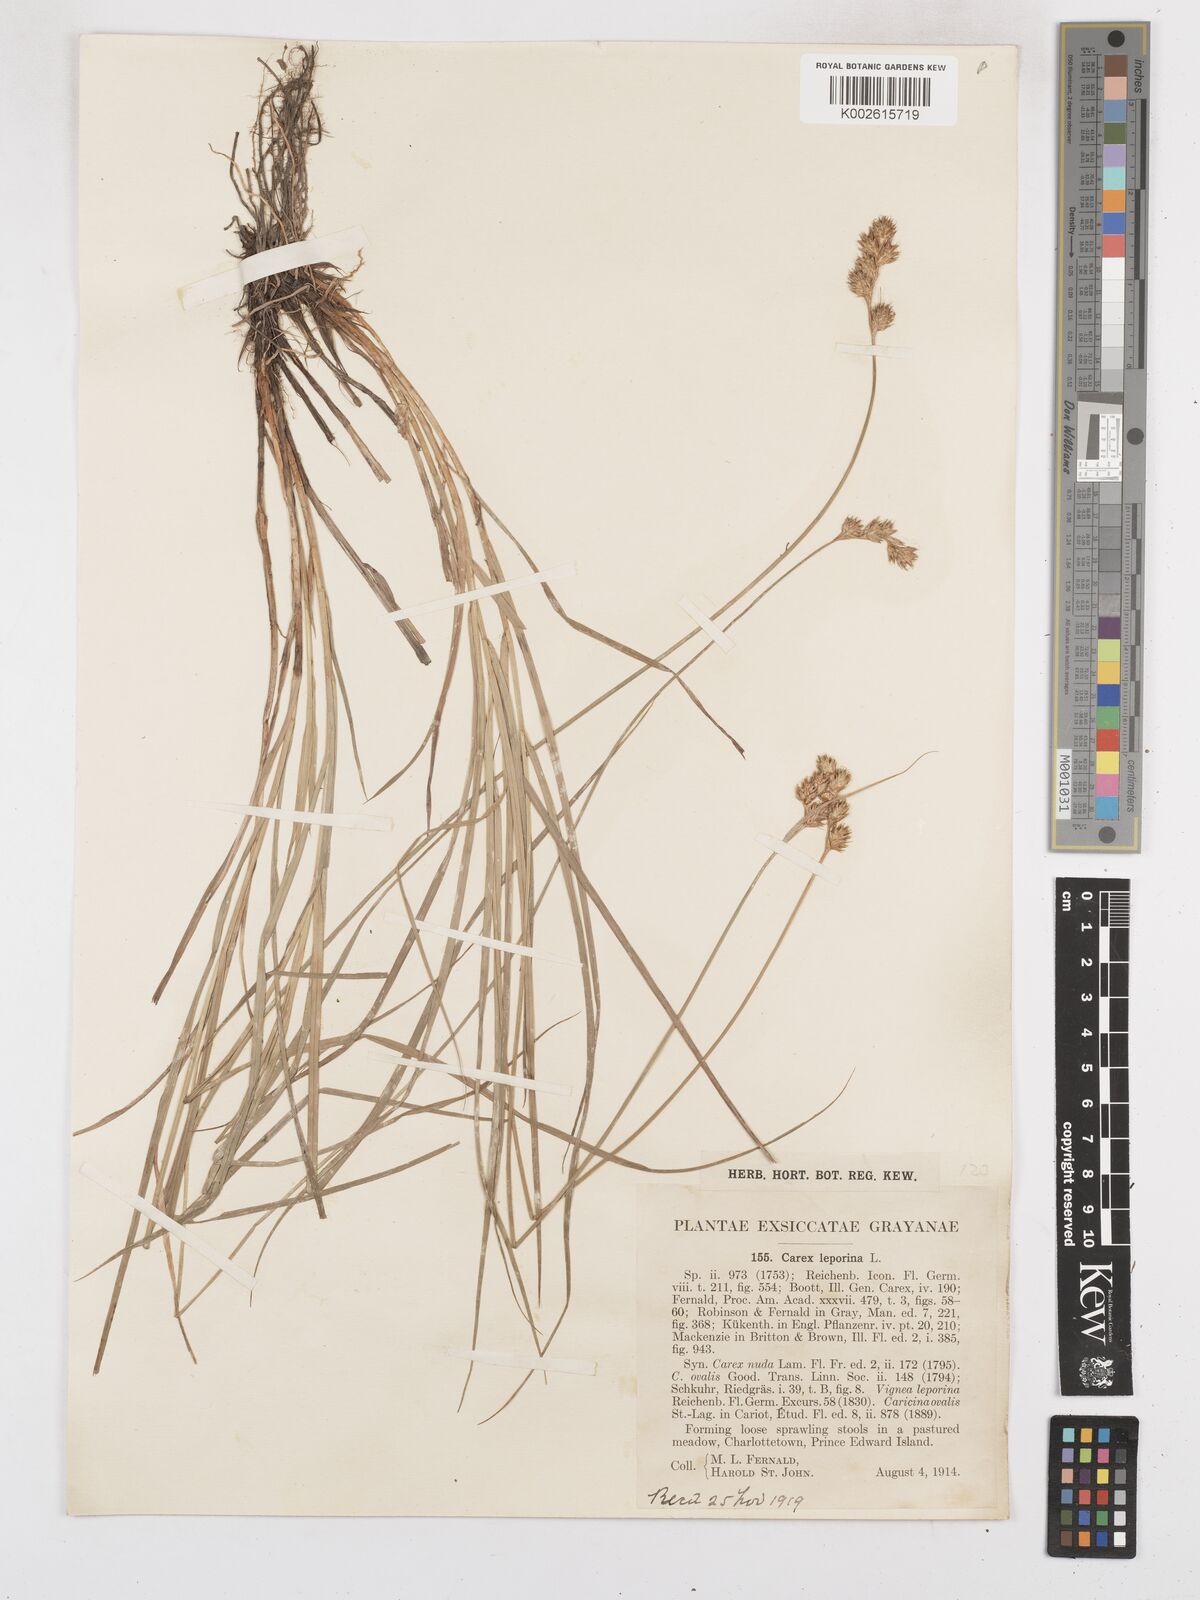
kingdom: Plantae
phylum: Tracheophyta
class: Liliopsida
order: Poales
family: Cyperaceae
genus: Carex
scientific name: Carex leporina
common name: Oval sedge
